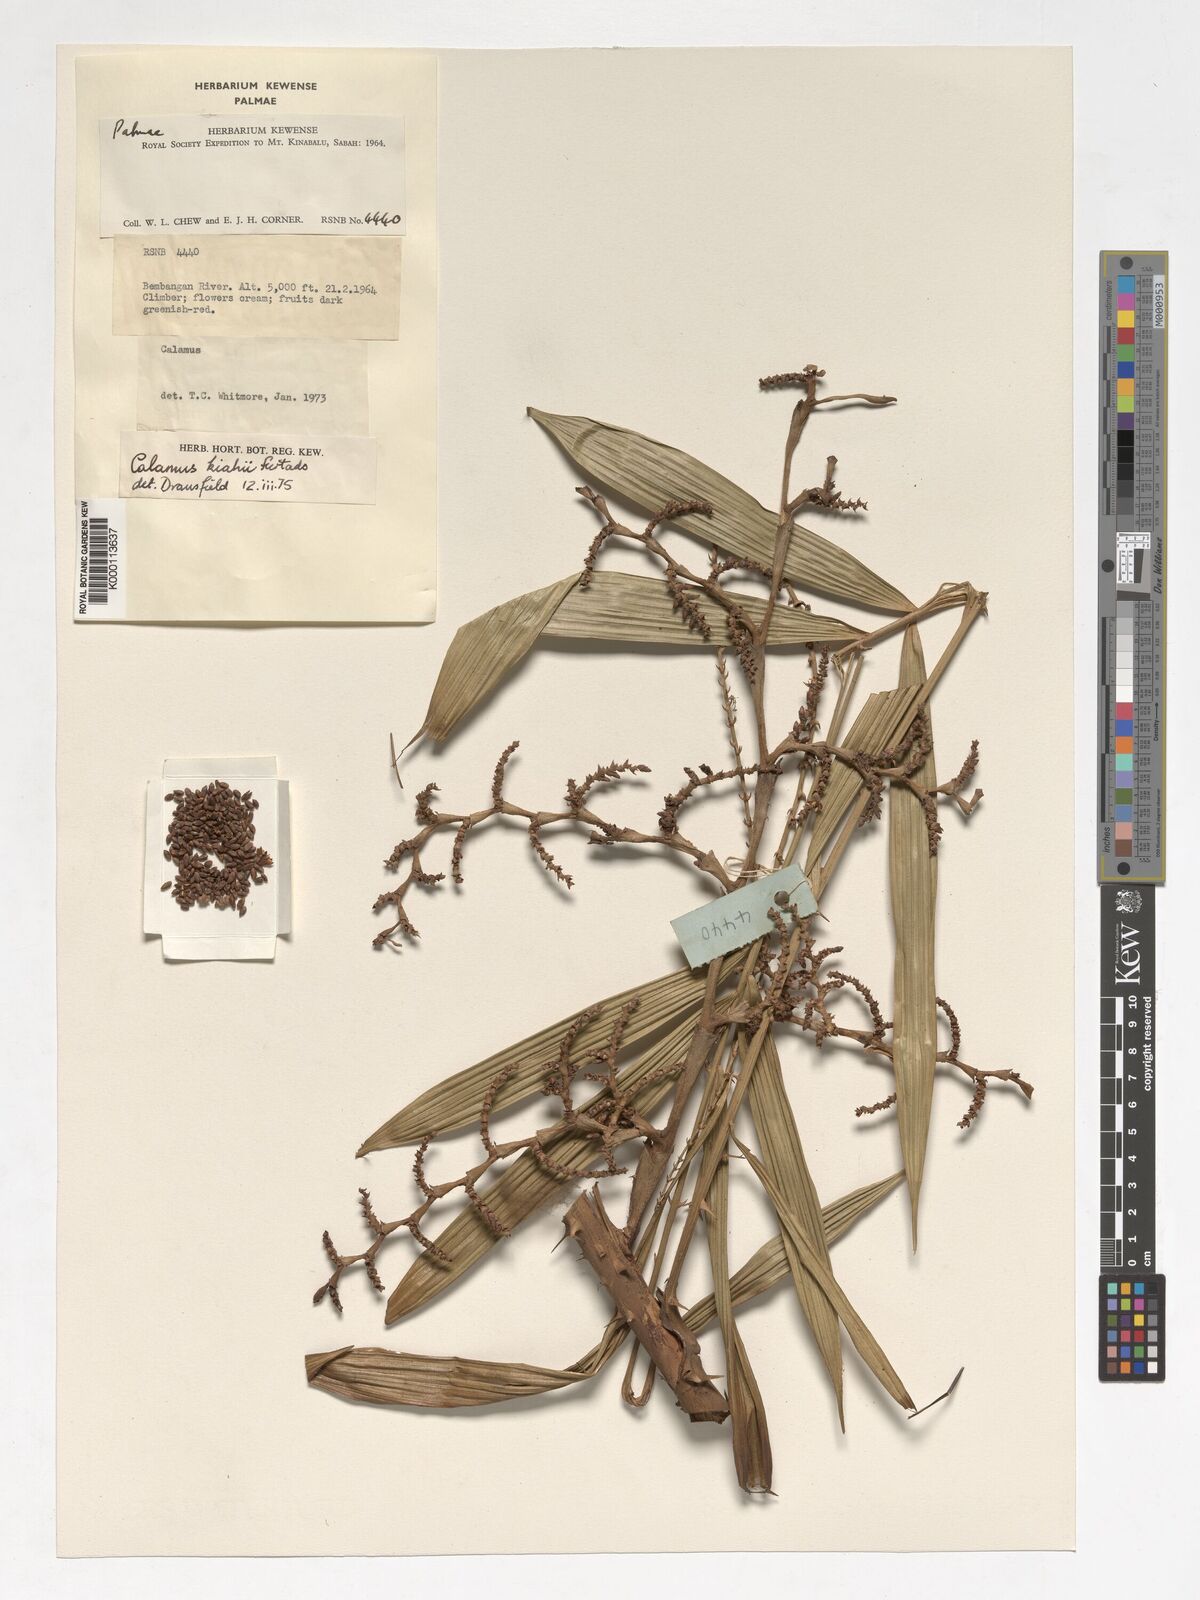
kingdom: Plantae
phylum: Tracheophyta
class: Liliopsida
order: Arecales
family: Arecaceae
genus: Calamus
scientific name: Calamus plicatus
